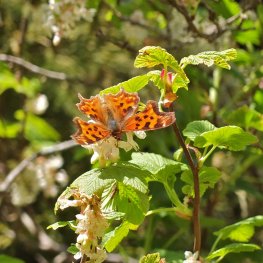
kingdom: Animalia
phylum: Arthropoda
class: Insecta
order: Lepidoptera
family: Nymphalidae
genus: Polygonia
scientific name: Polygonia satyrus
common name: Satyr Comma
